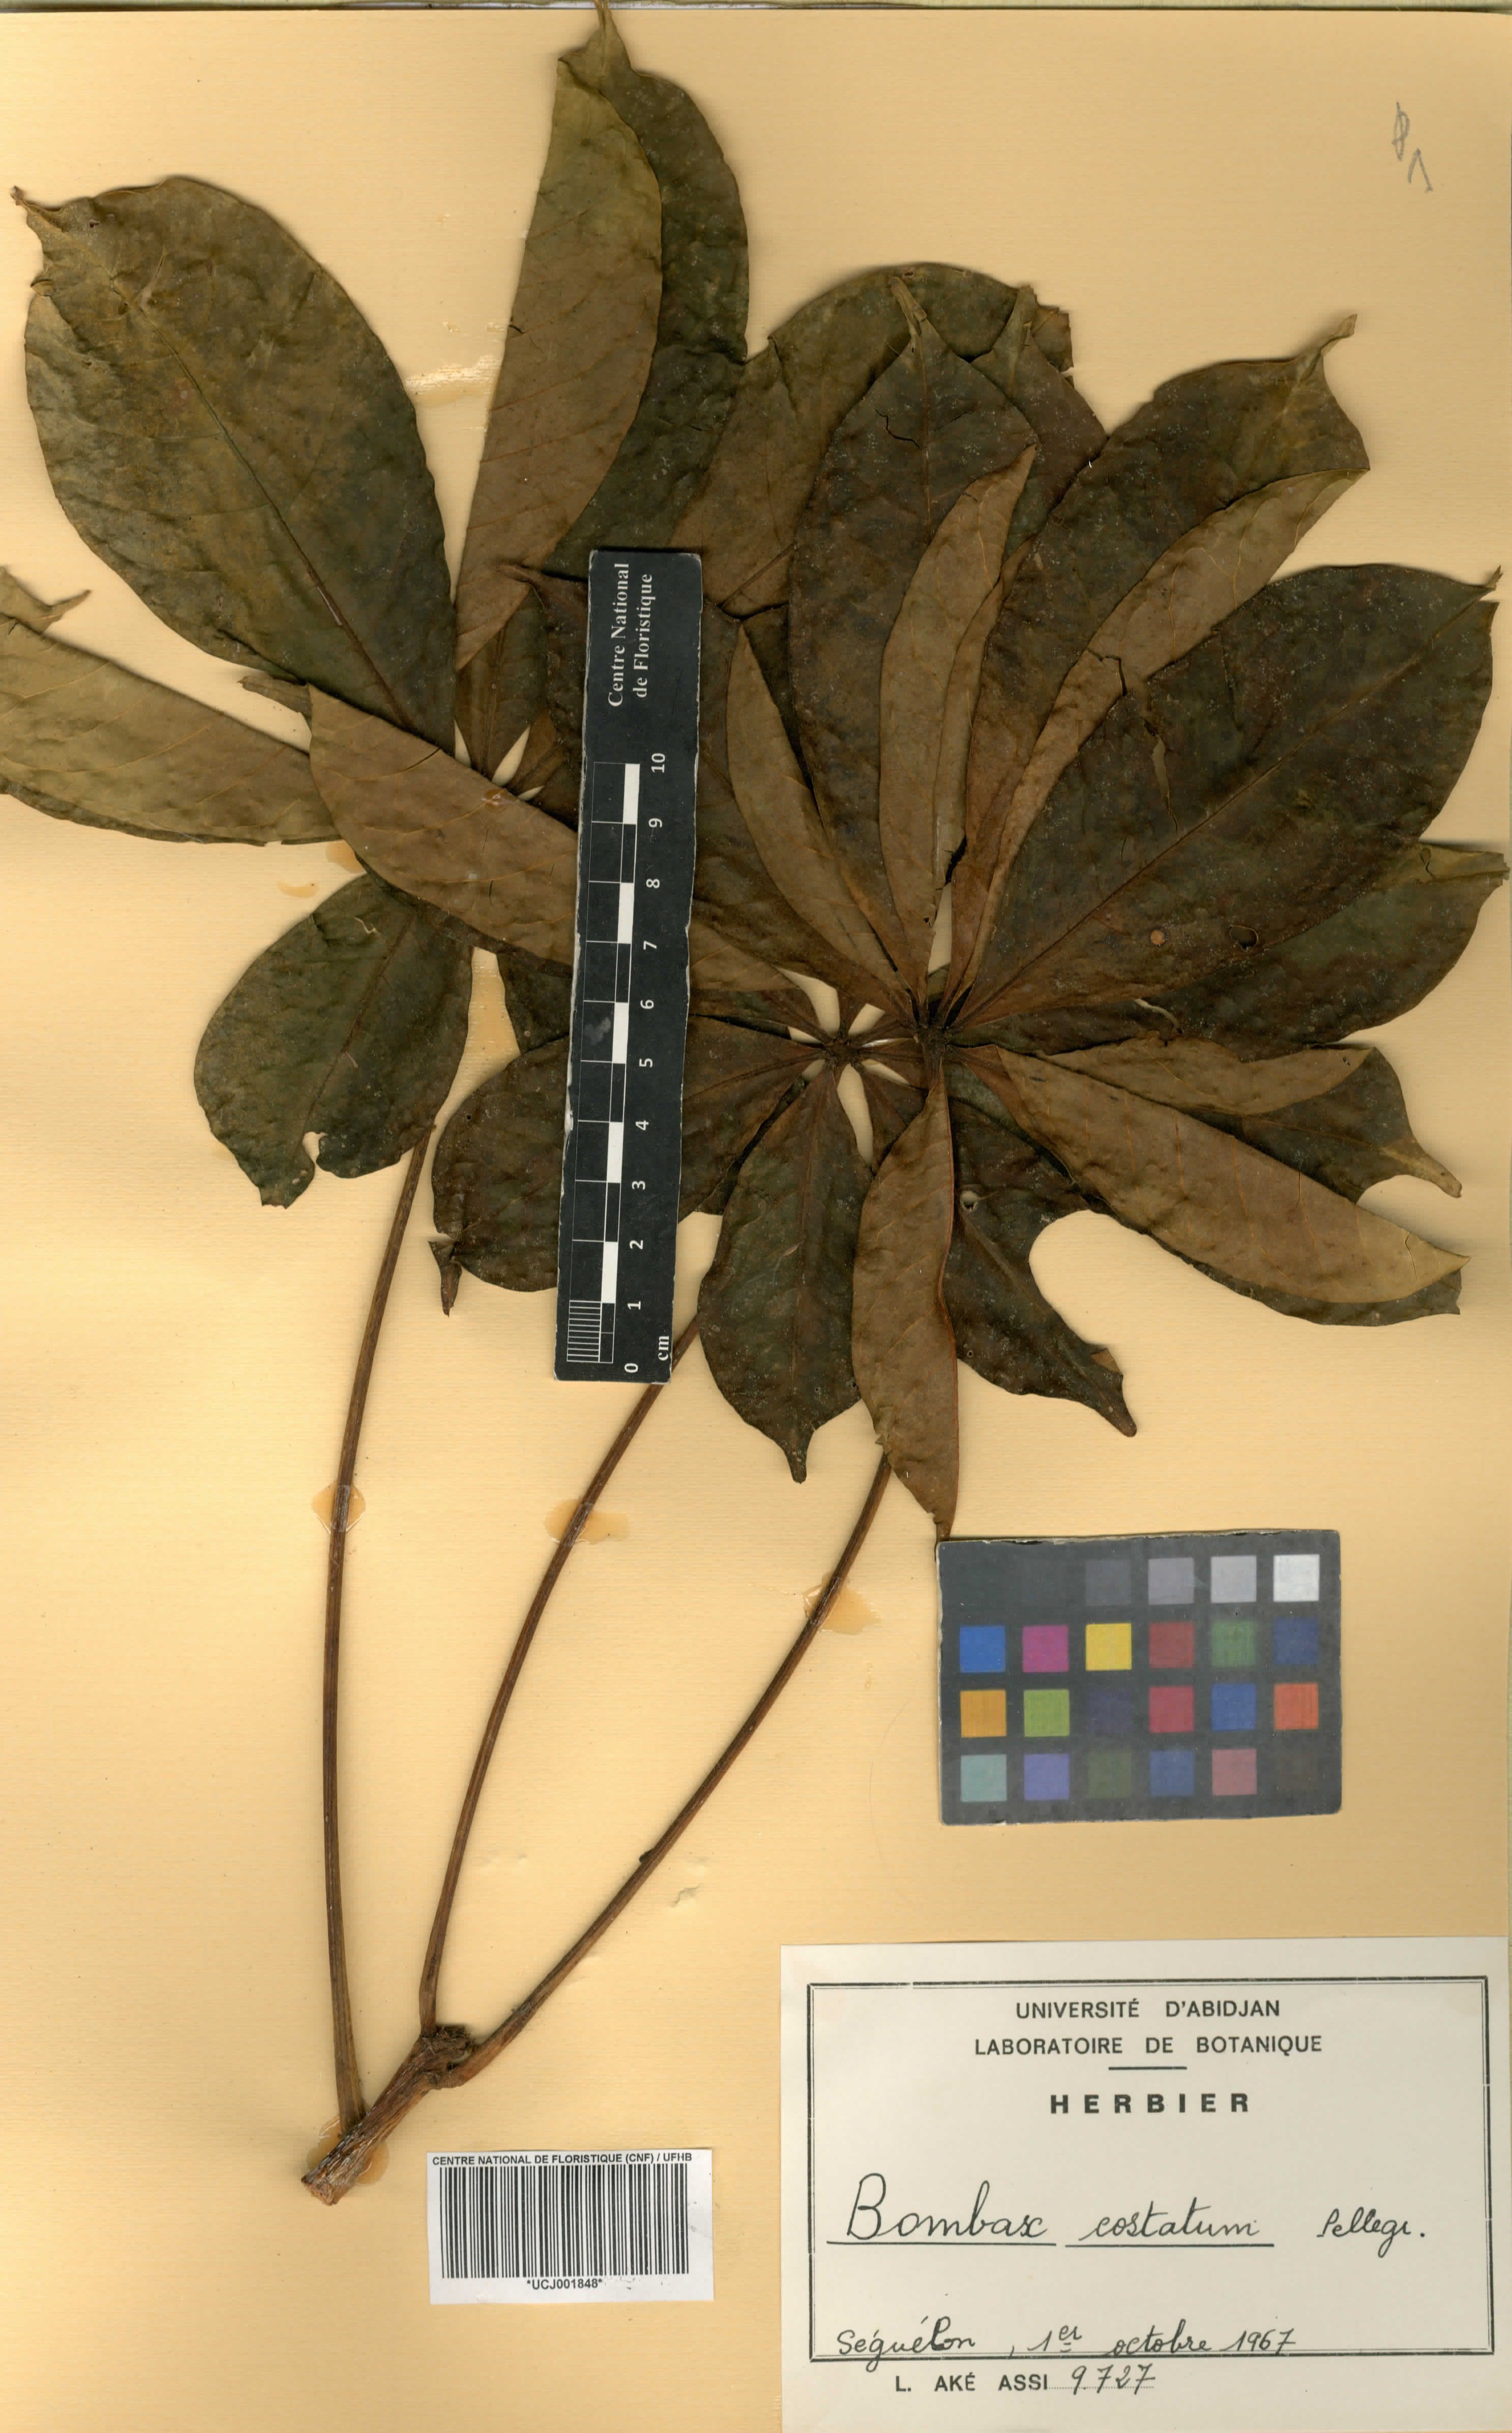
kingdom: Plantae
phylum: Tracheophyta
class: Magnoliopsida
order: Malvales
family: Malvaceae
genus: Bombax
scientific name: Bombax costatum
